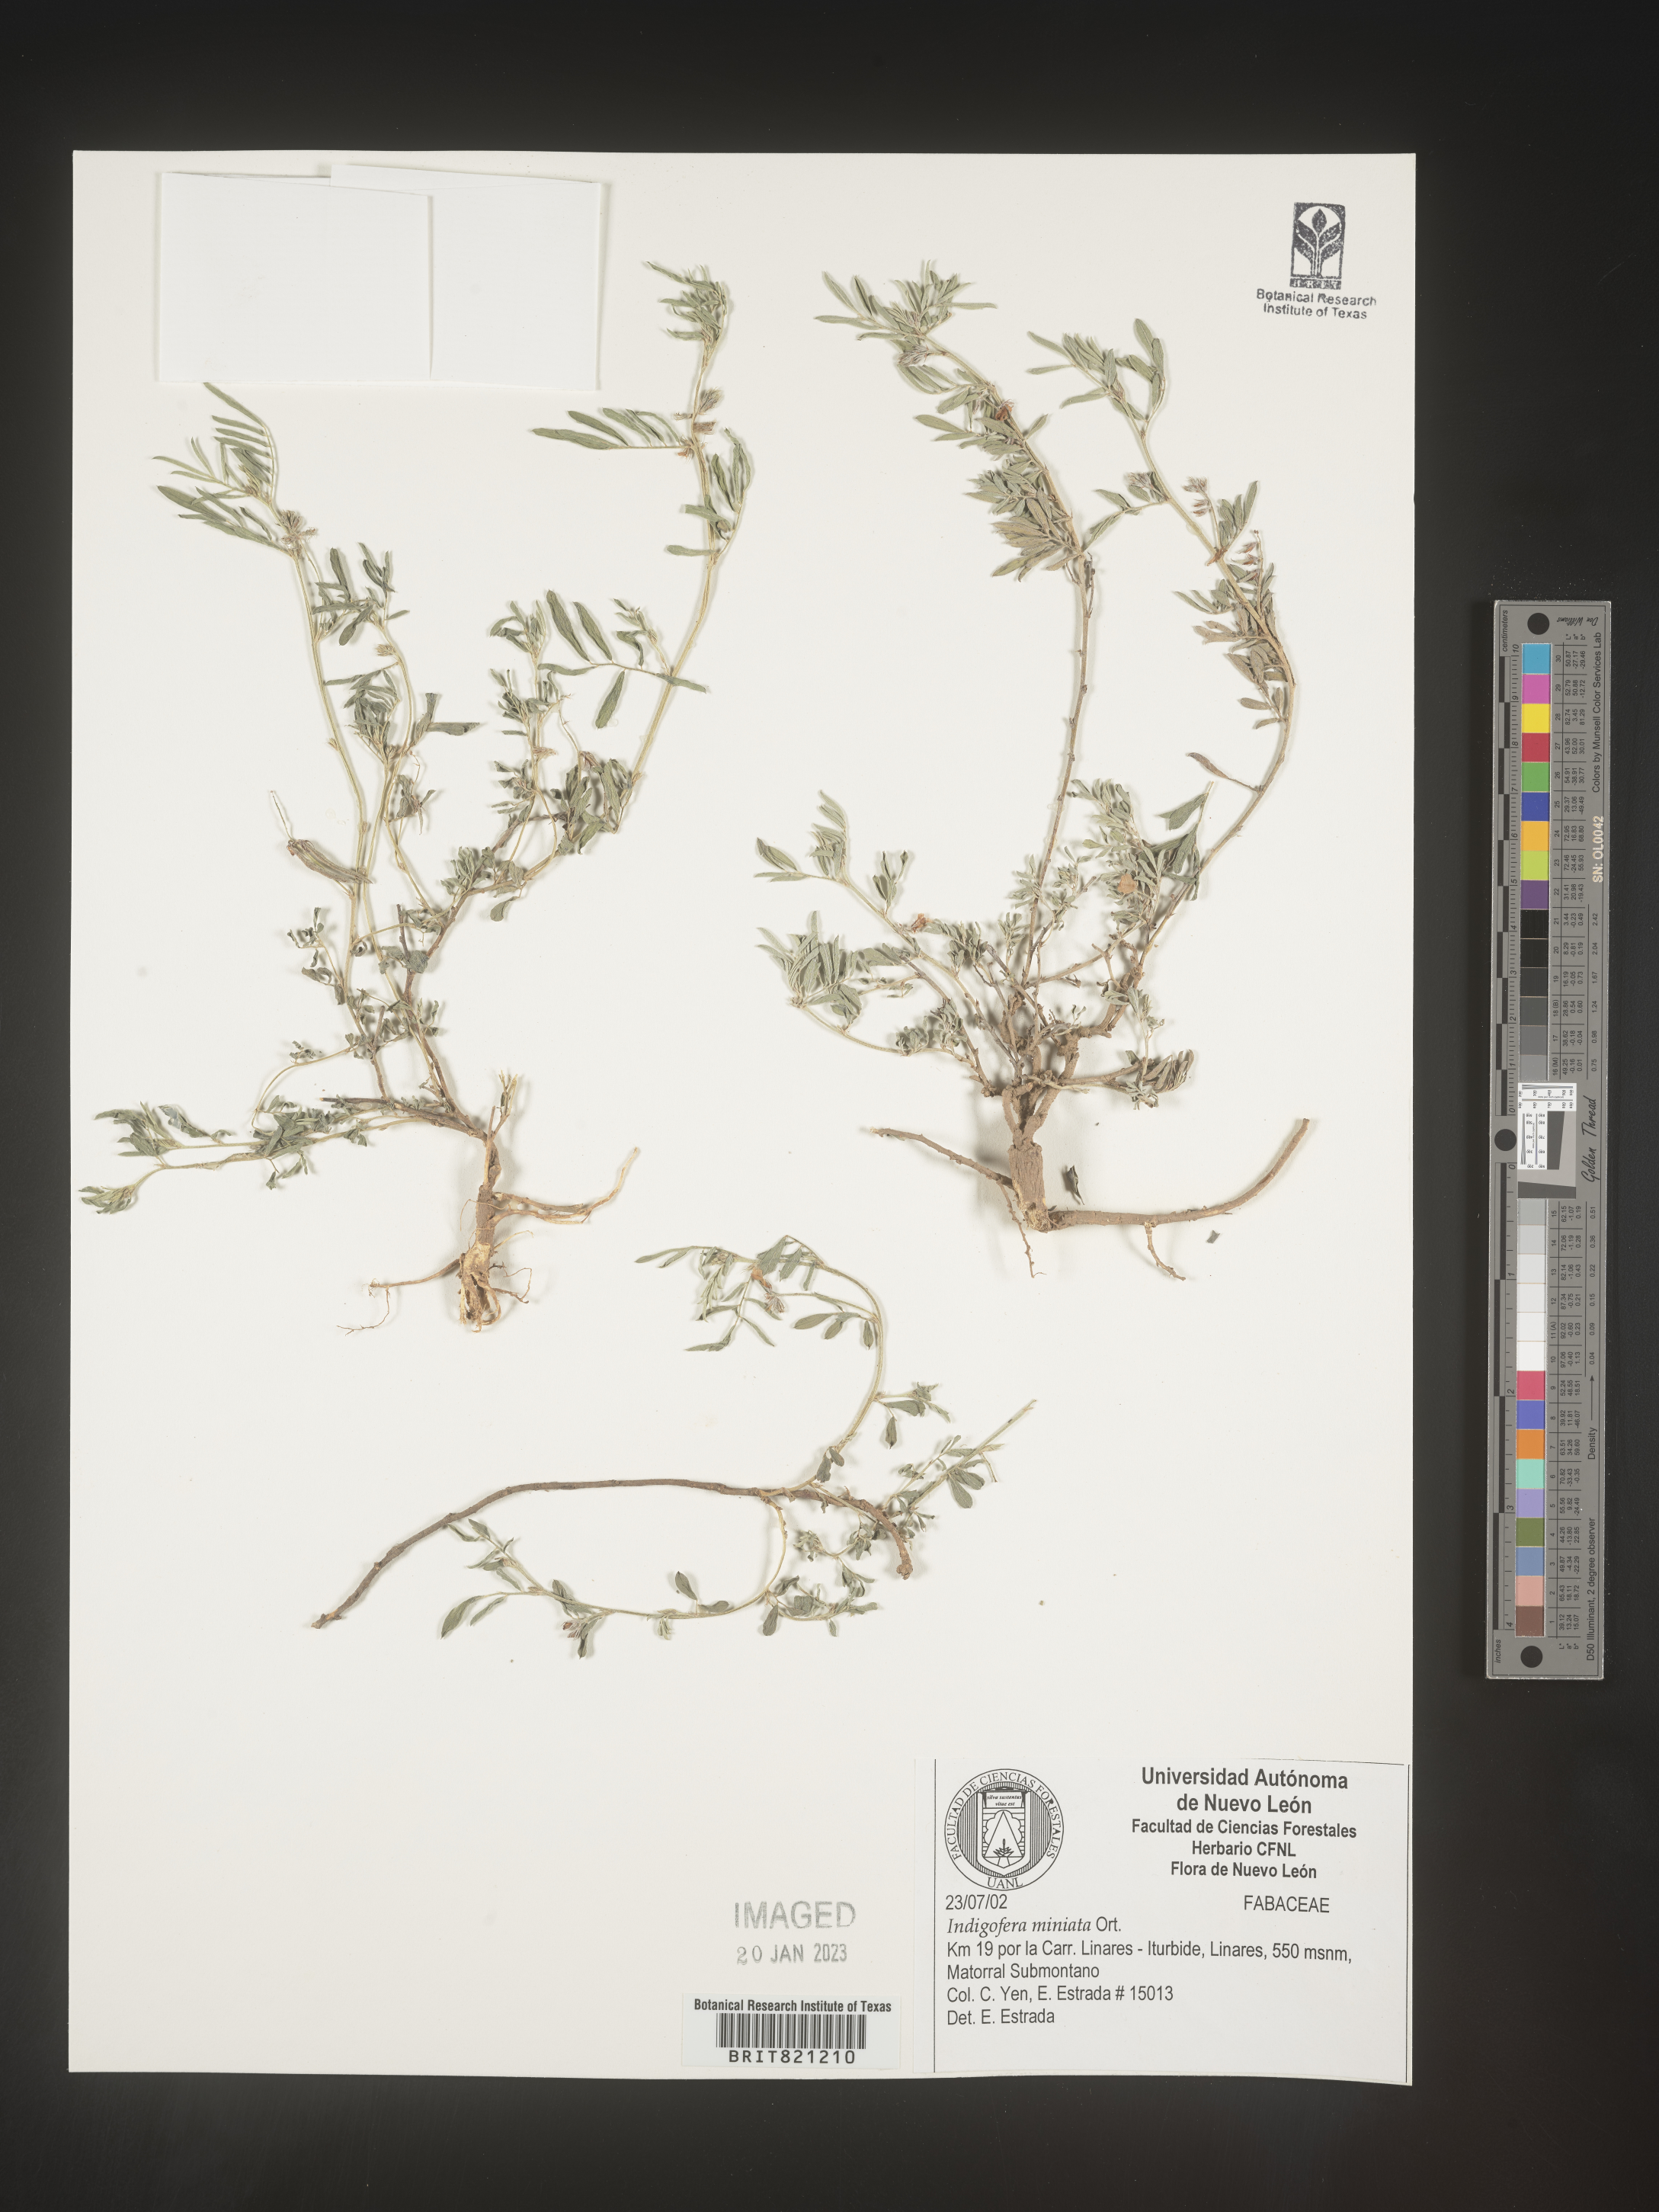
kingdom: Plantae
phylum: Tracheophyta
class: Magnoliopsida
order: Fabales
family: Fabaceae
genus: Indigofera
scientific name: Indigofera
